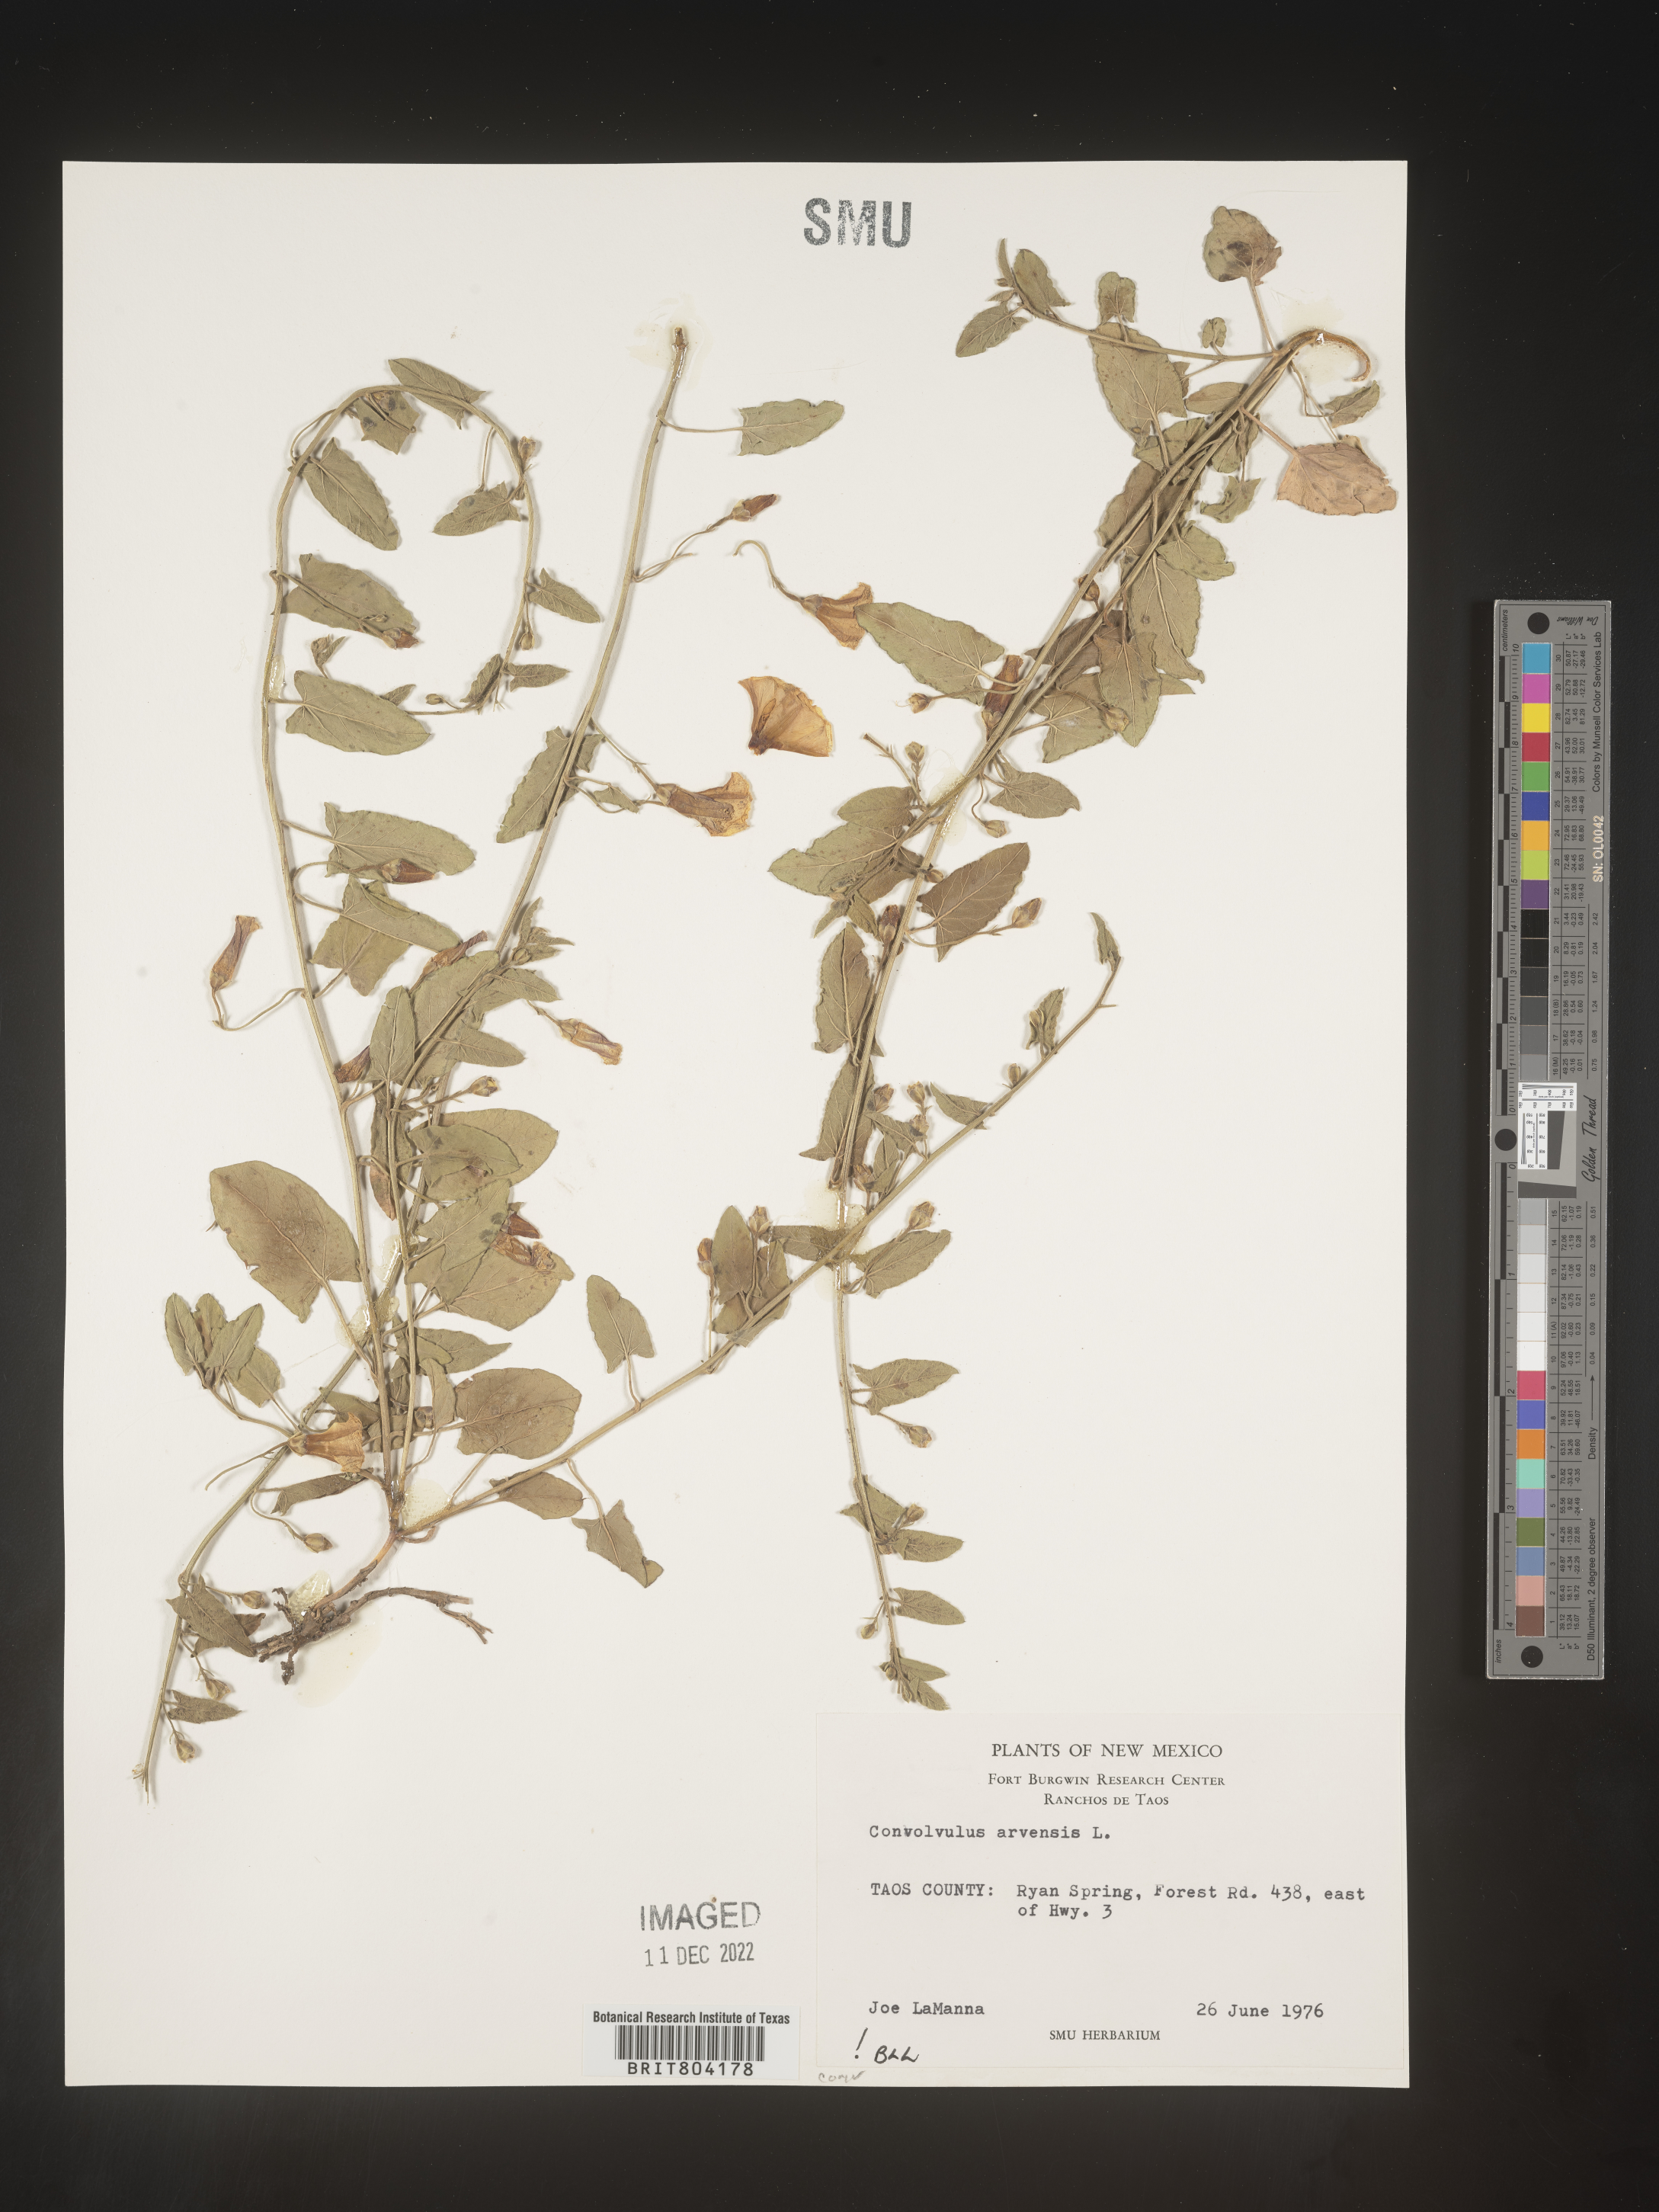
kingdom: Plantae
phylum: Tracheophyta
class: Magnoliopsida
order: Solanales
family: Convolvulaceae
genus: Convolvulus
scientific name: Convolvulus arvensis
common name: Field bindweed
